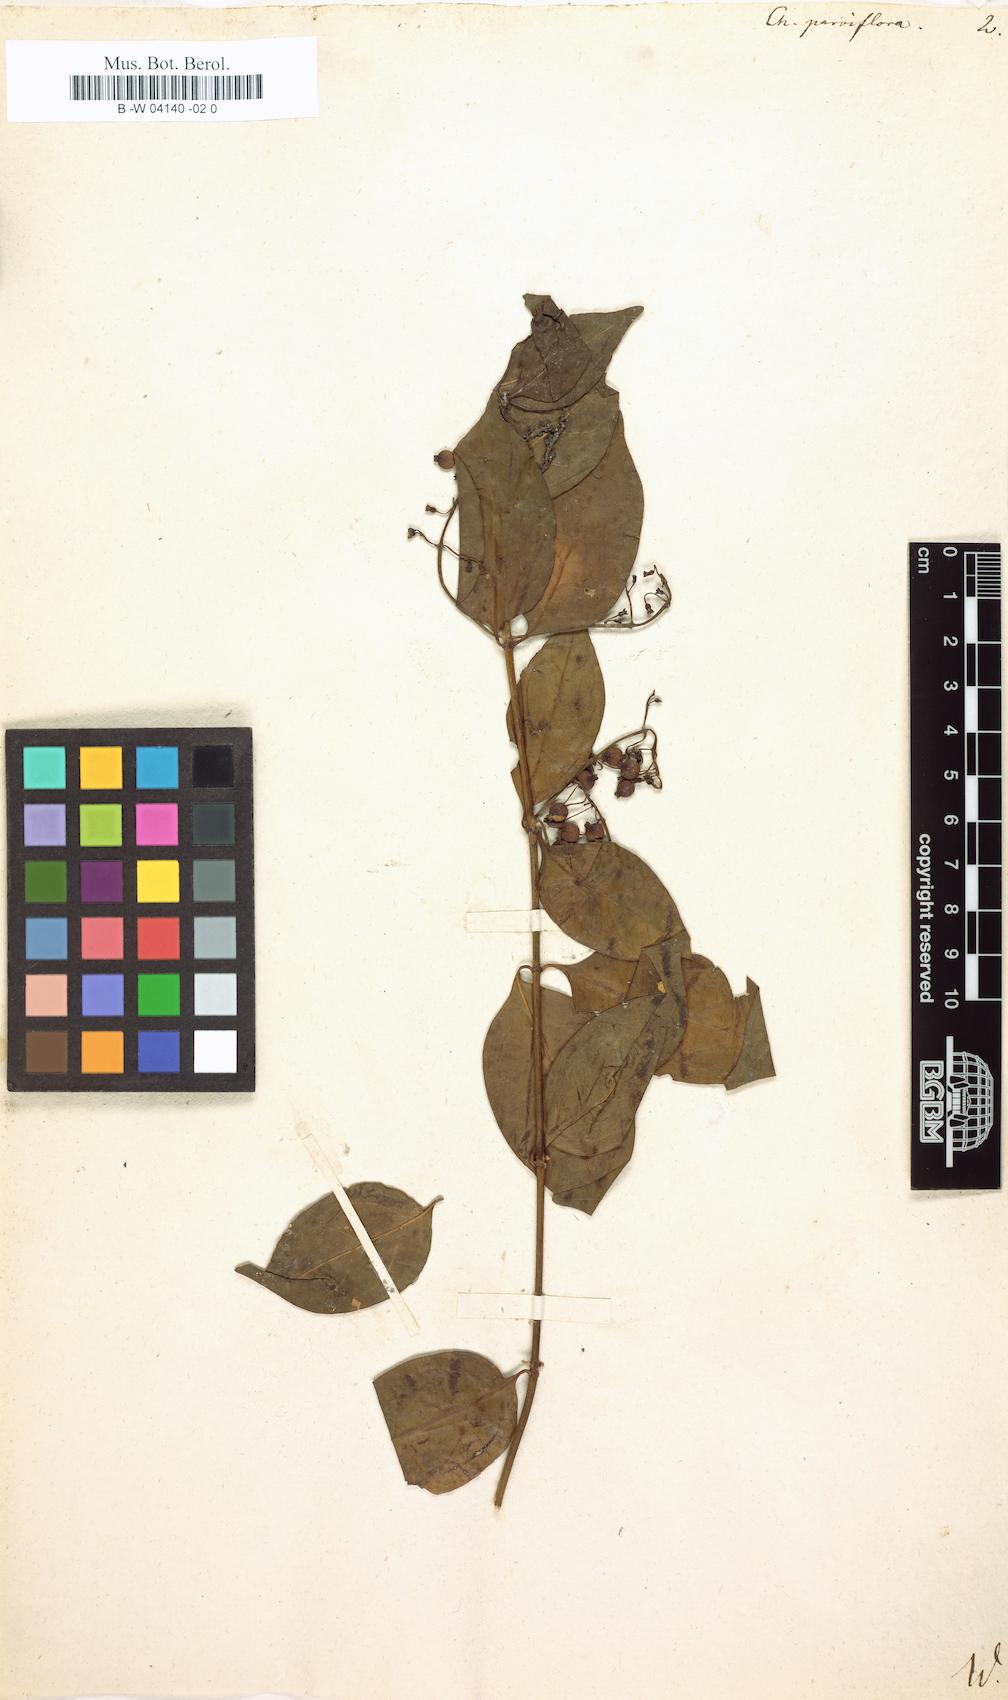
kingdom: Plantae
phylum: Tracheophyta
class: Magnoliopsida
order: Gentianales
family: Rubiaceae
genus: Chiococca
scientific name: Chiococca parviflora
